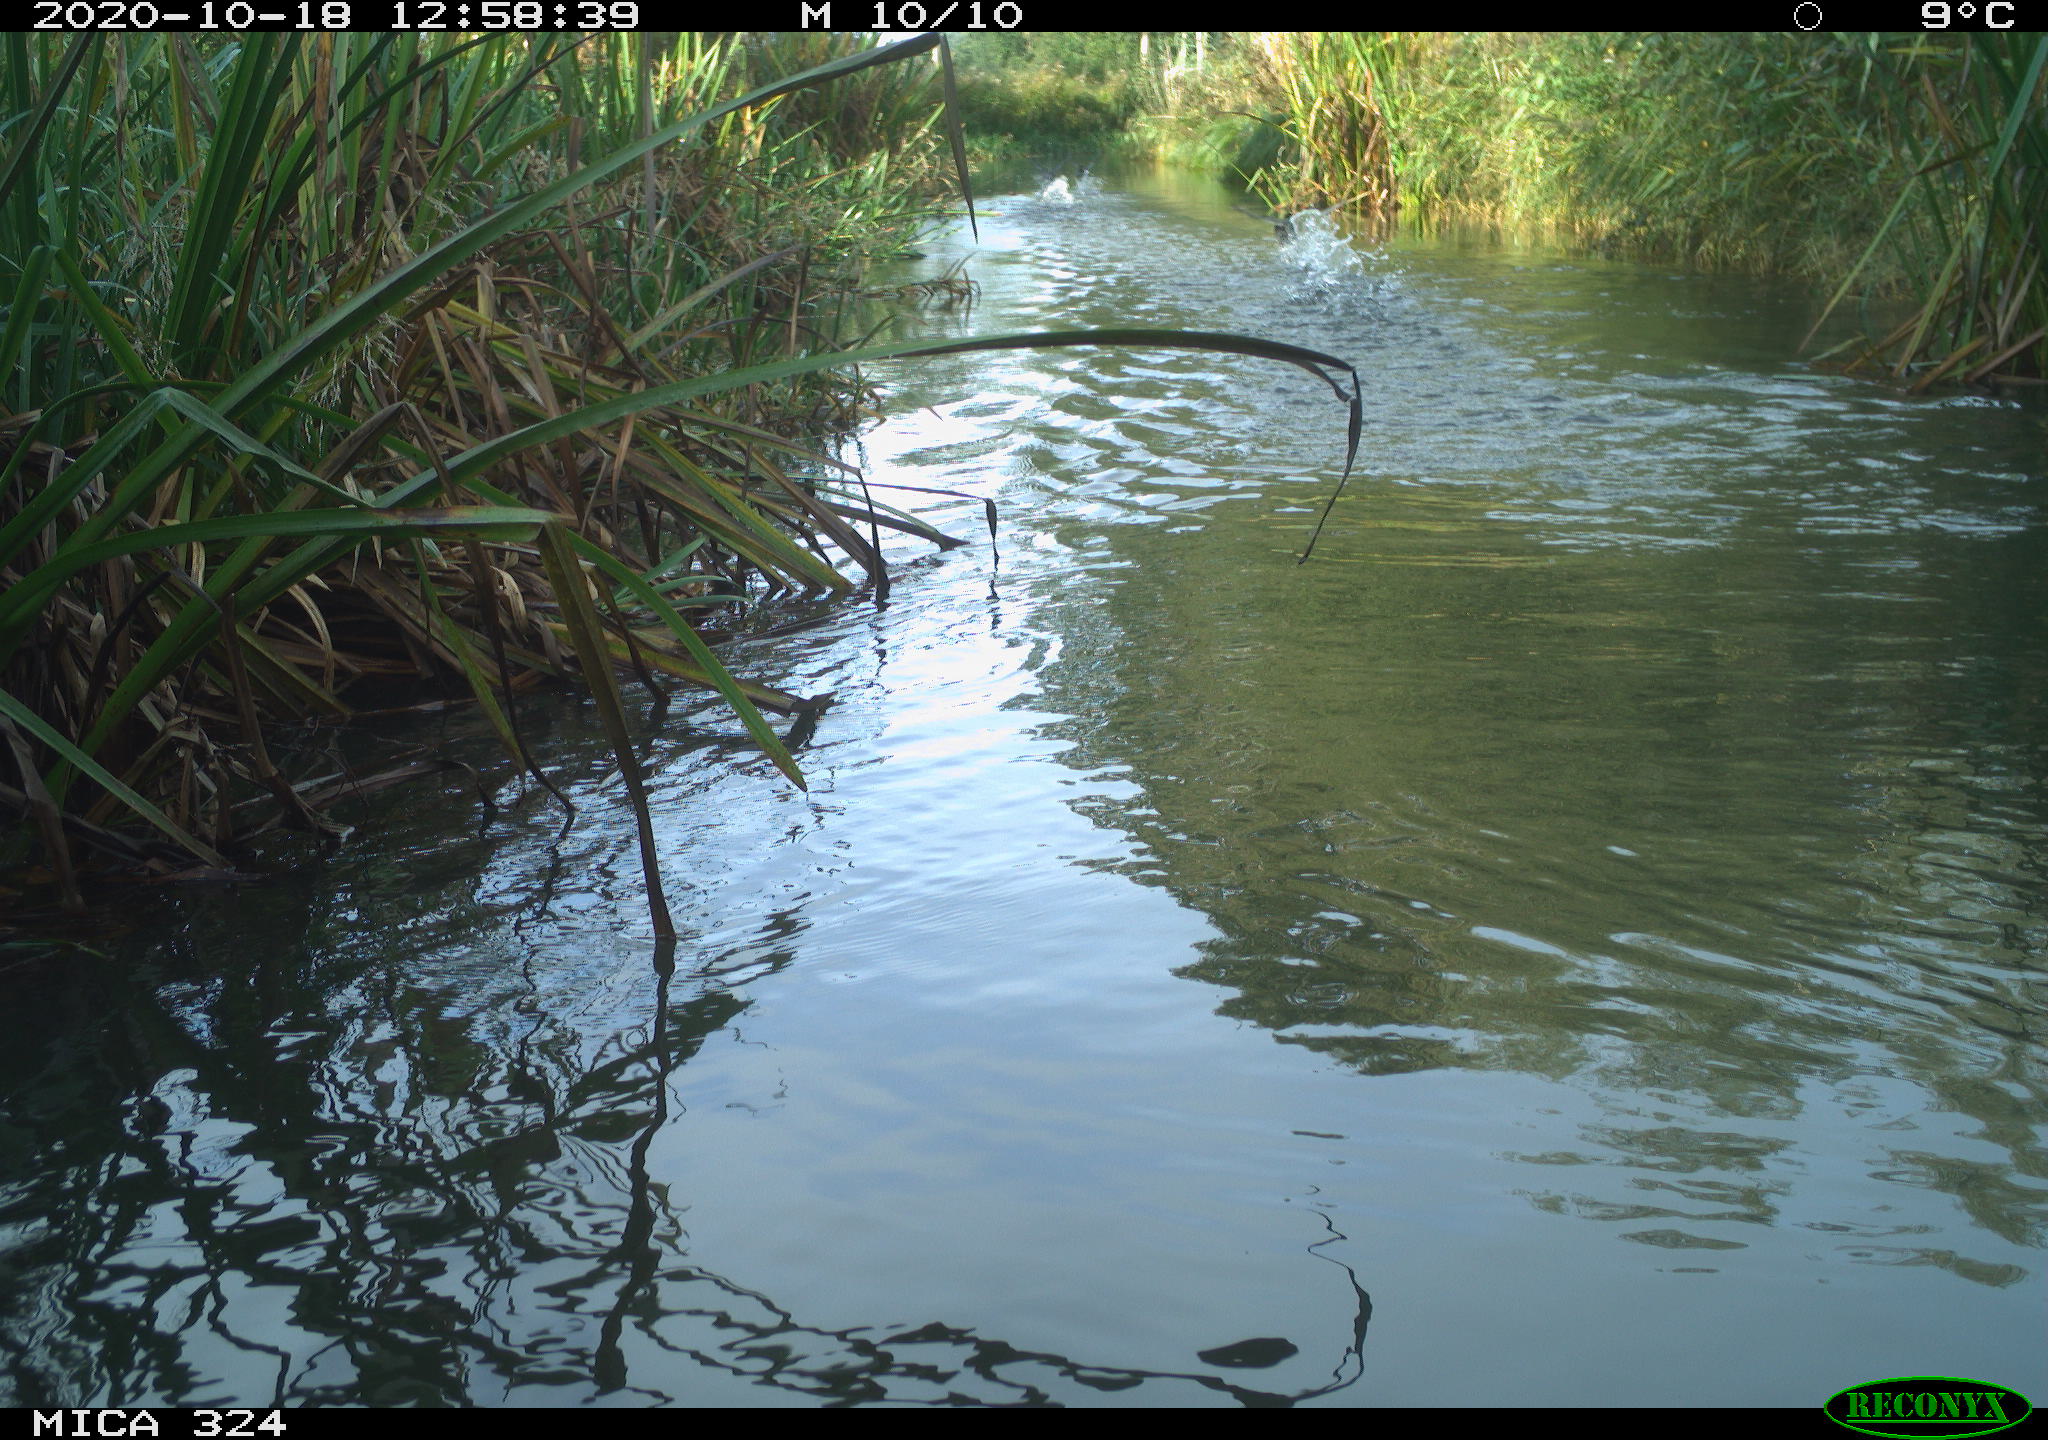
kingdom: Animalia
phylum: Chordata
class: Aves
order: Gruiformes
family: Rallidae
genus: Fulica
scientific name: Fulica atra
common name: Eurasian coot
